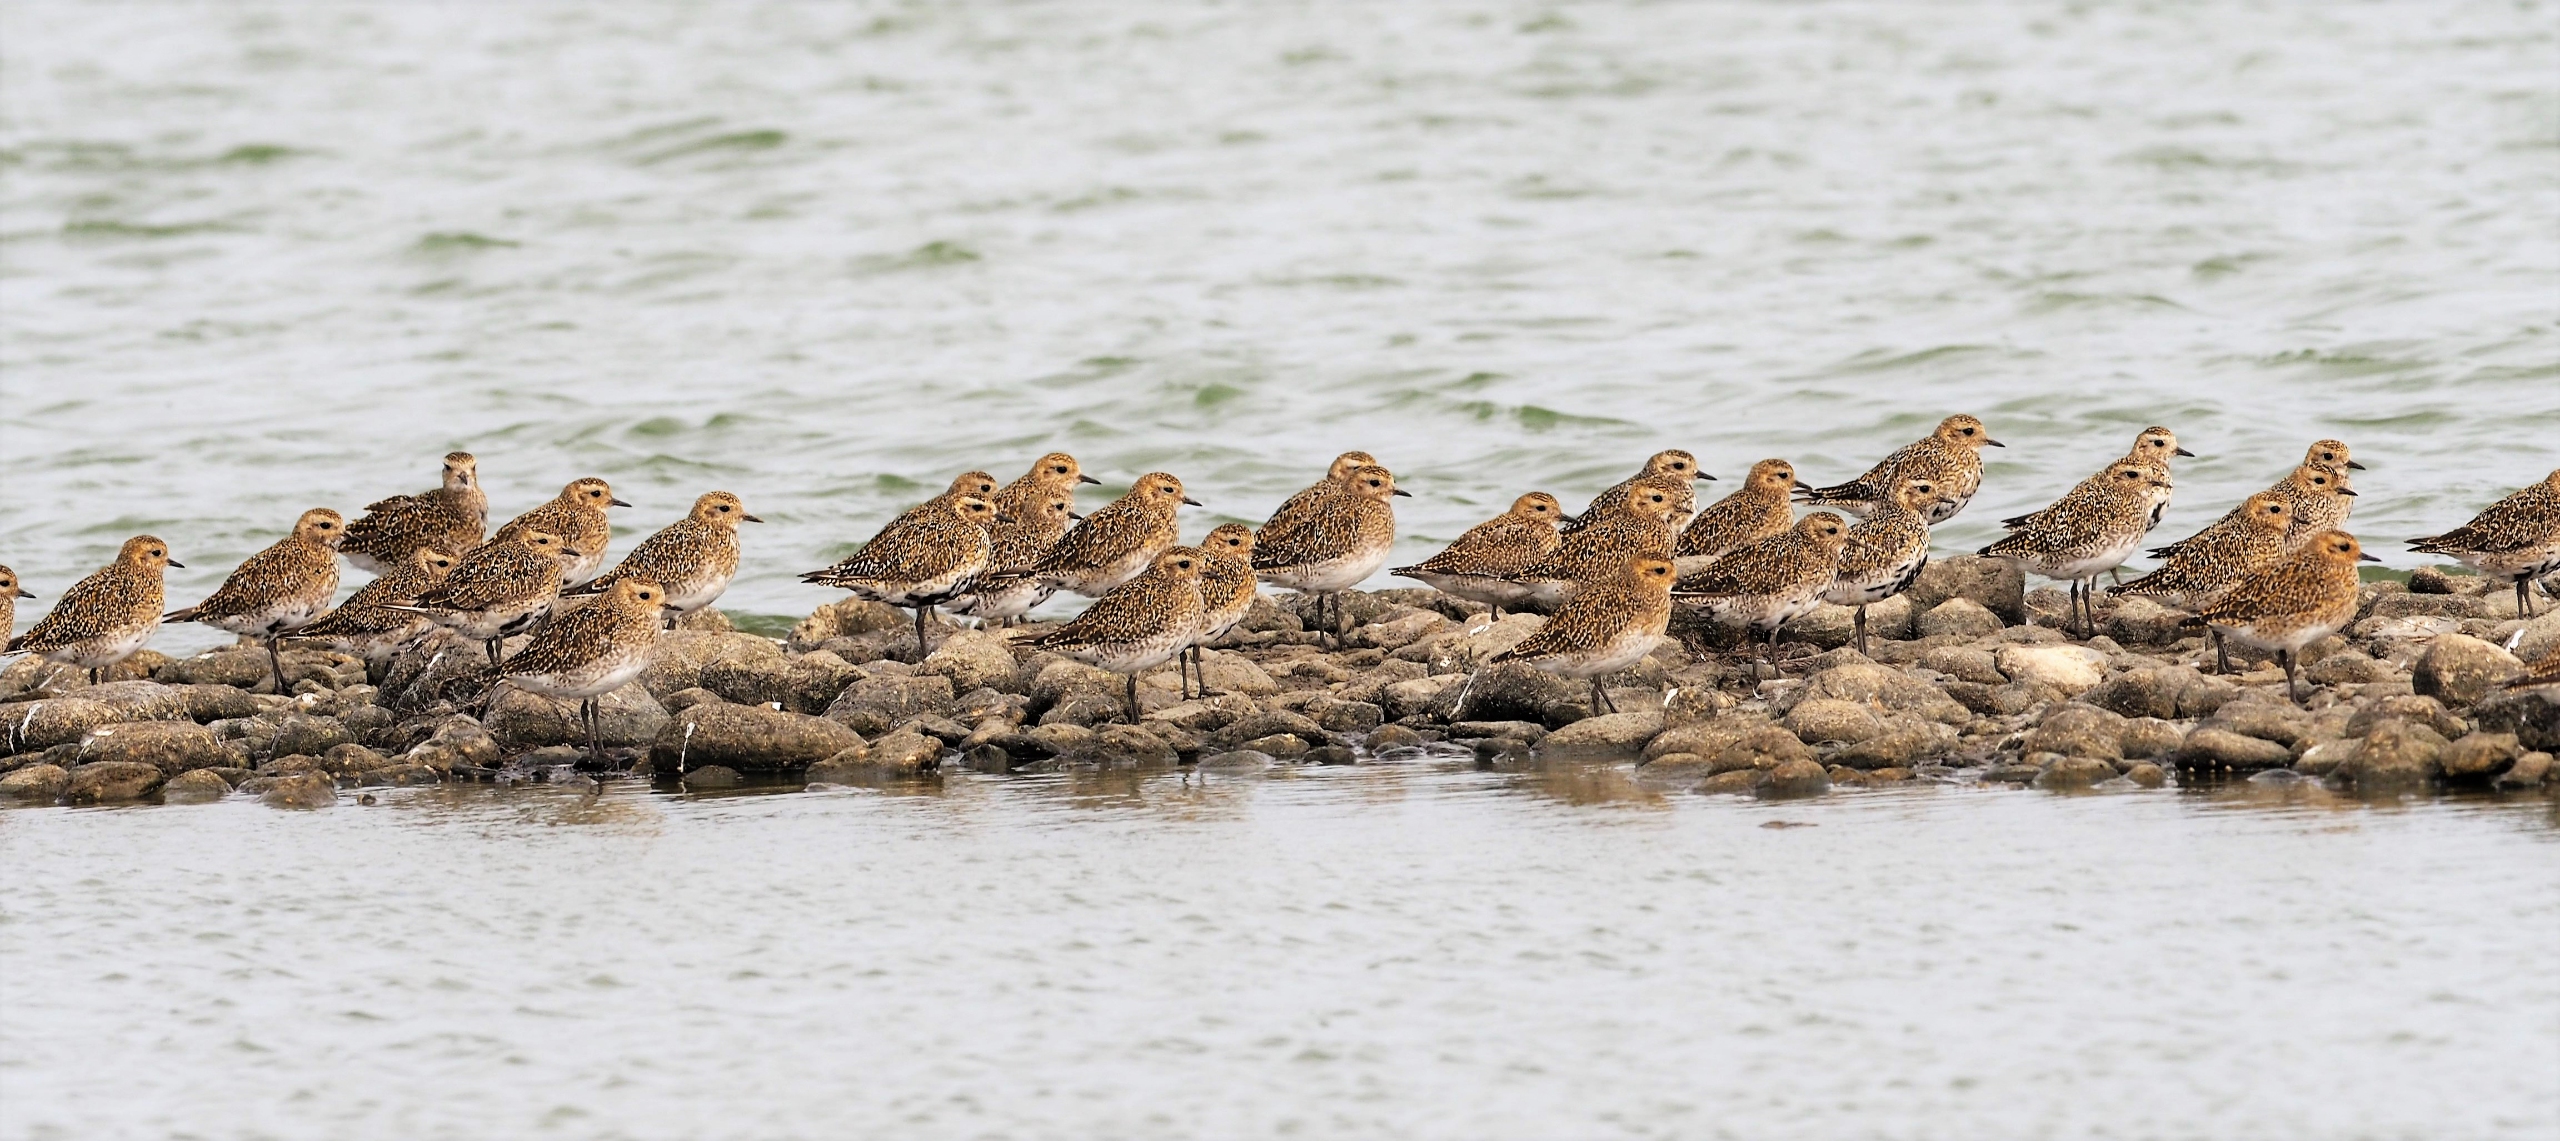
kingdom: Animalia
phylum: Chordata
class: Aves
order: Charadriiformes
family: Charadriidae
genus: Pluvialis
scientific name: Pluvialis apricaria
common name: Hjejle
